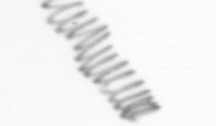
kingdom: Chromista
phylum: Ochrophyta
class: Bacillariophyceae
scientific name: Bacillariophyceae
